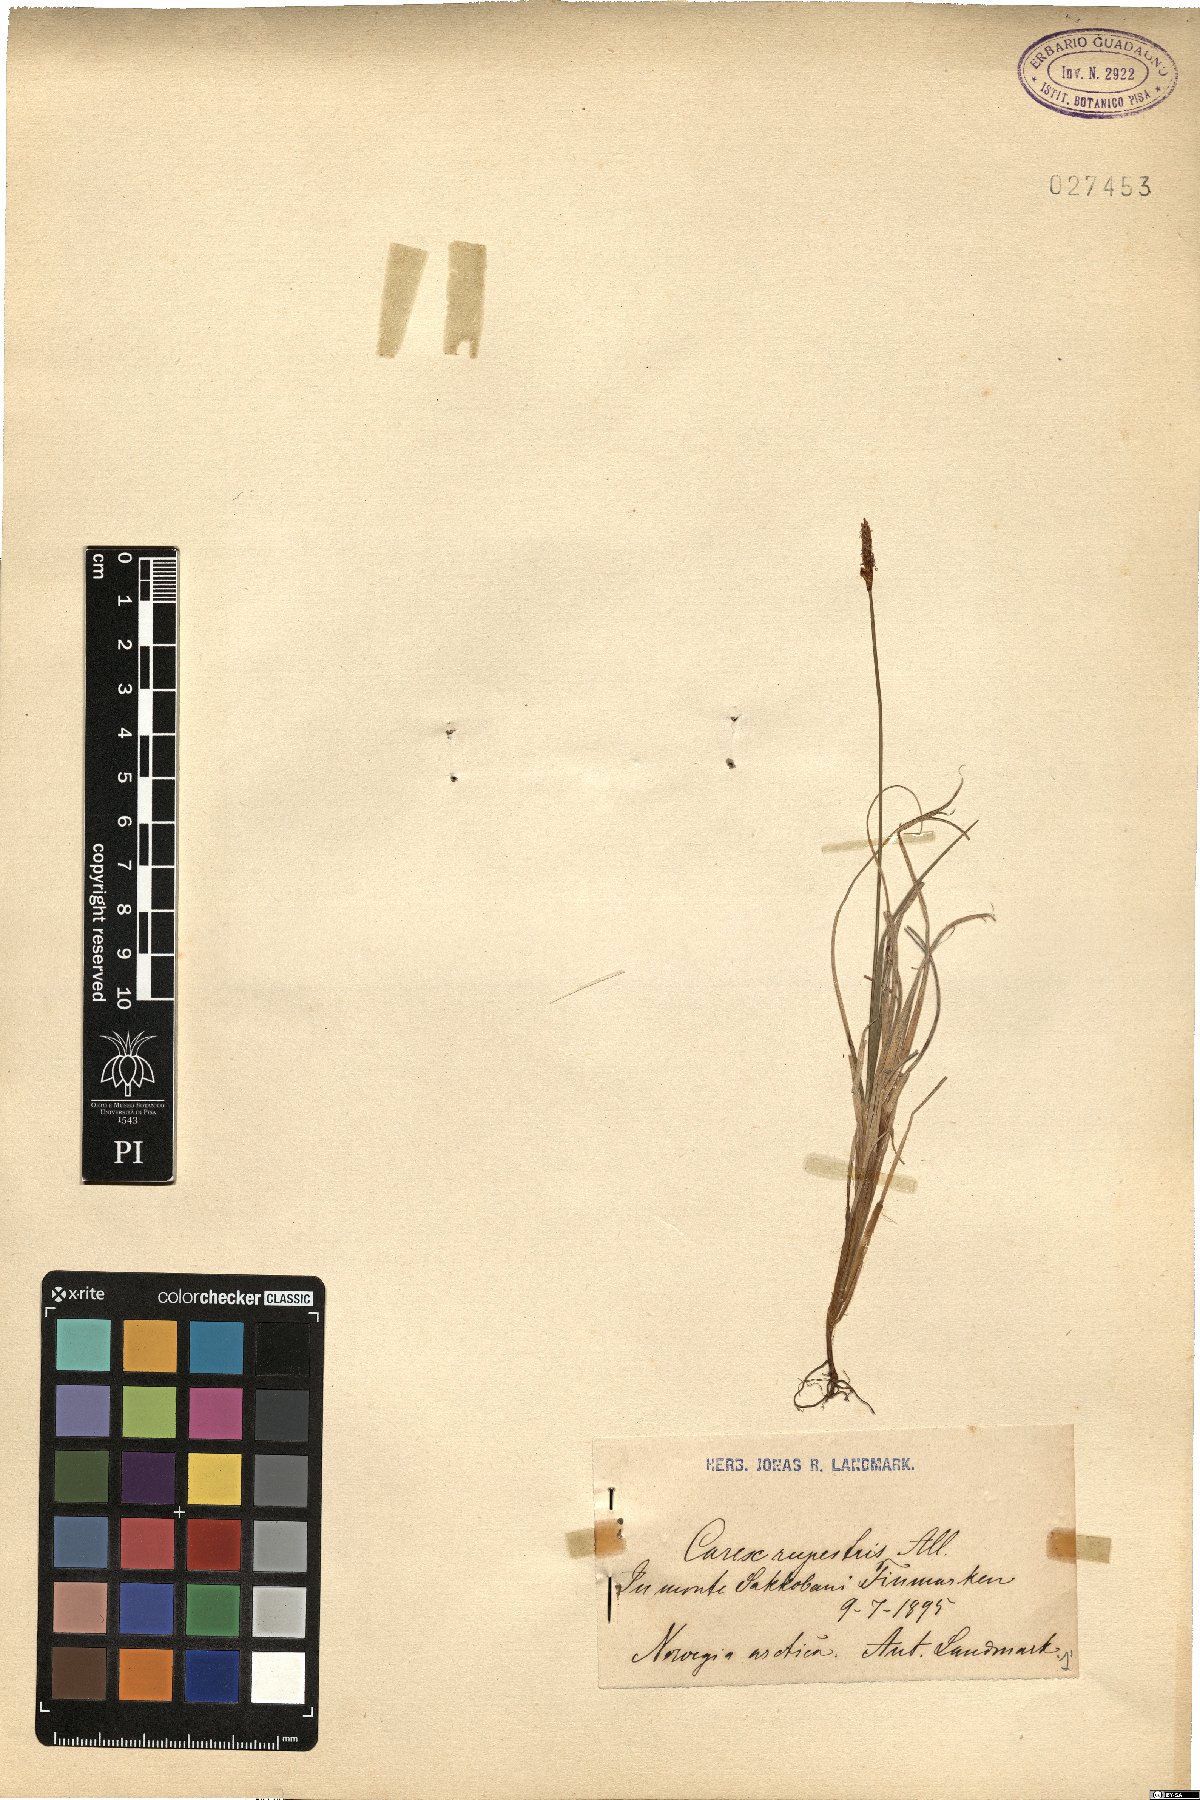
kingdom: Plantae
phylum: Tracheophyta
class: Liliopsida
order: Poales
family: Cyperaceae
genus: Carex
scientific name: Carex rupestris
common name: Rock sedge
